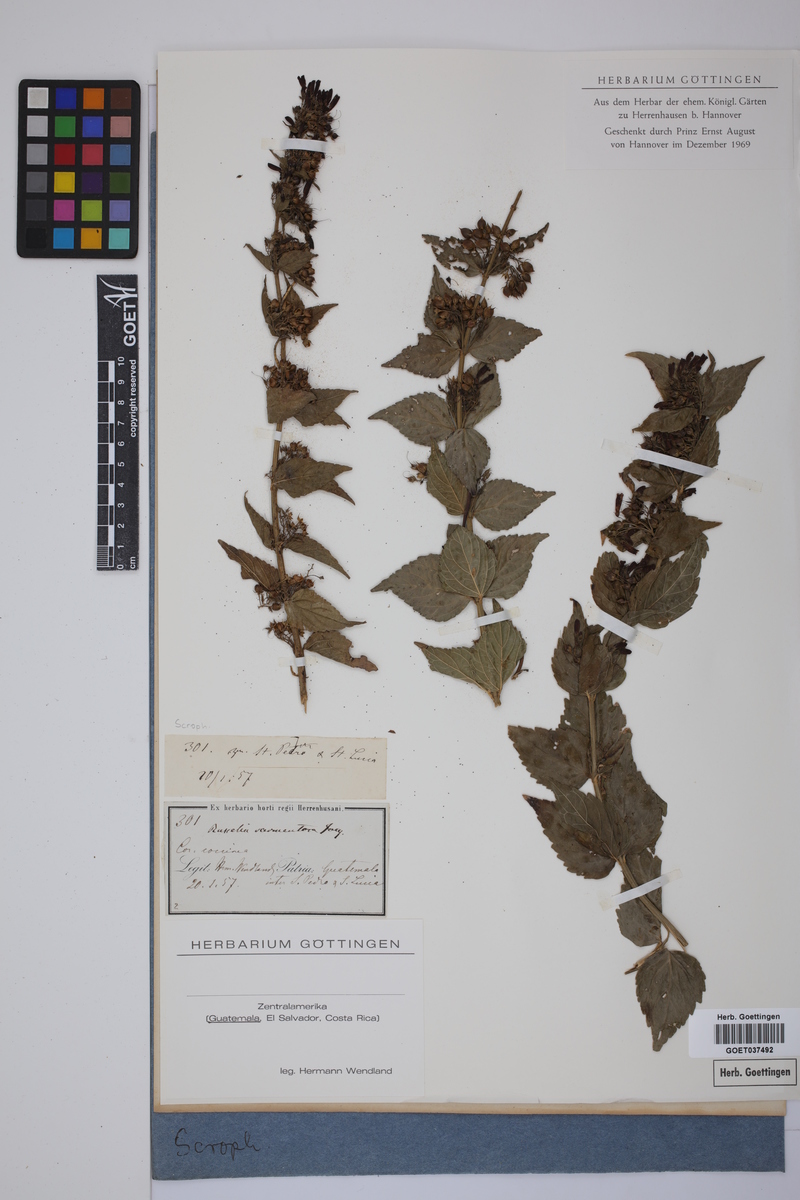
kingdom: Plantae
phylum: Tracheophyta
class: Magnoliopsida
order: Lamiales
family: Plantaginaceae
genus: Russelia
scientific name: Russelia sarmentosa
